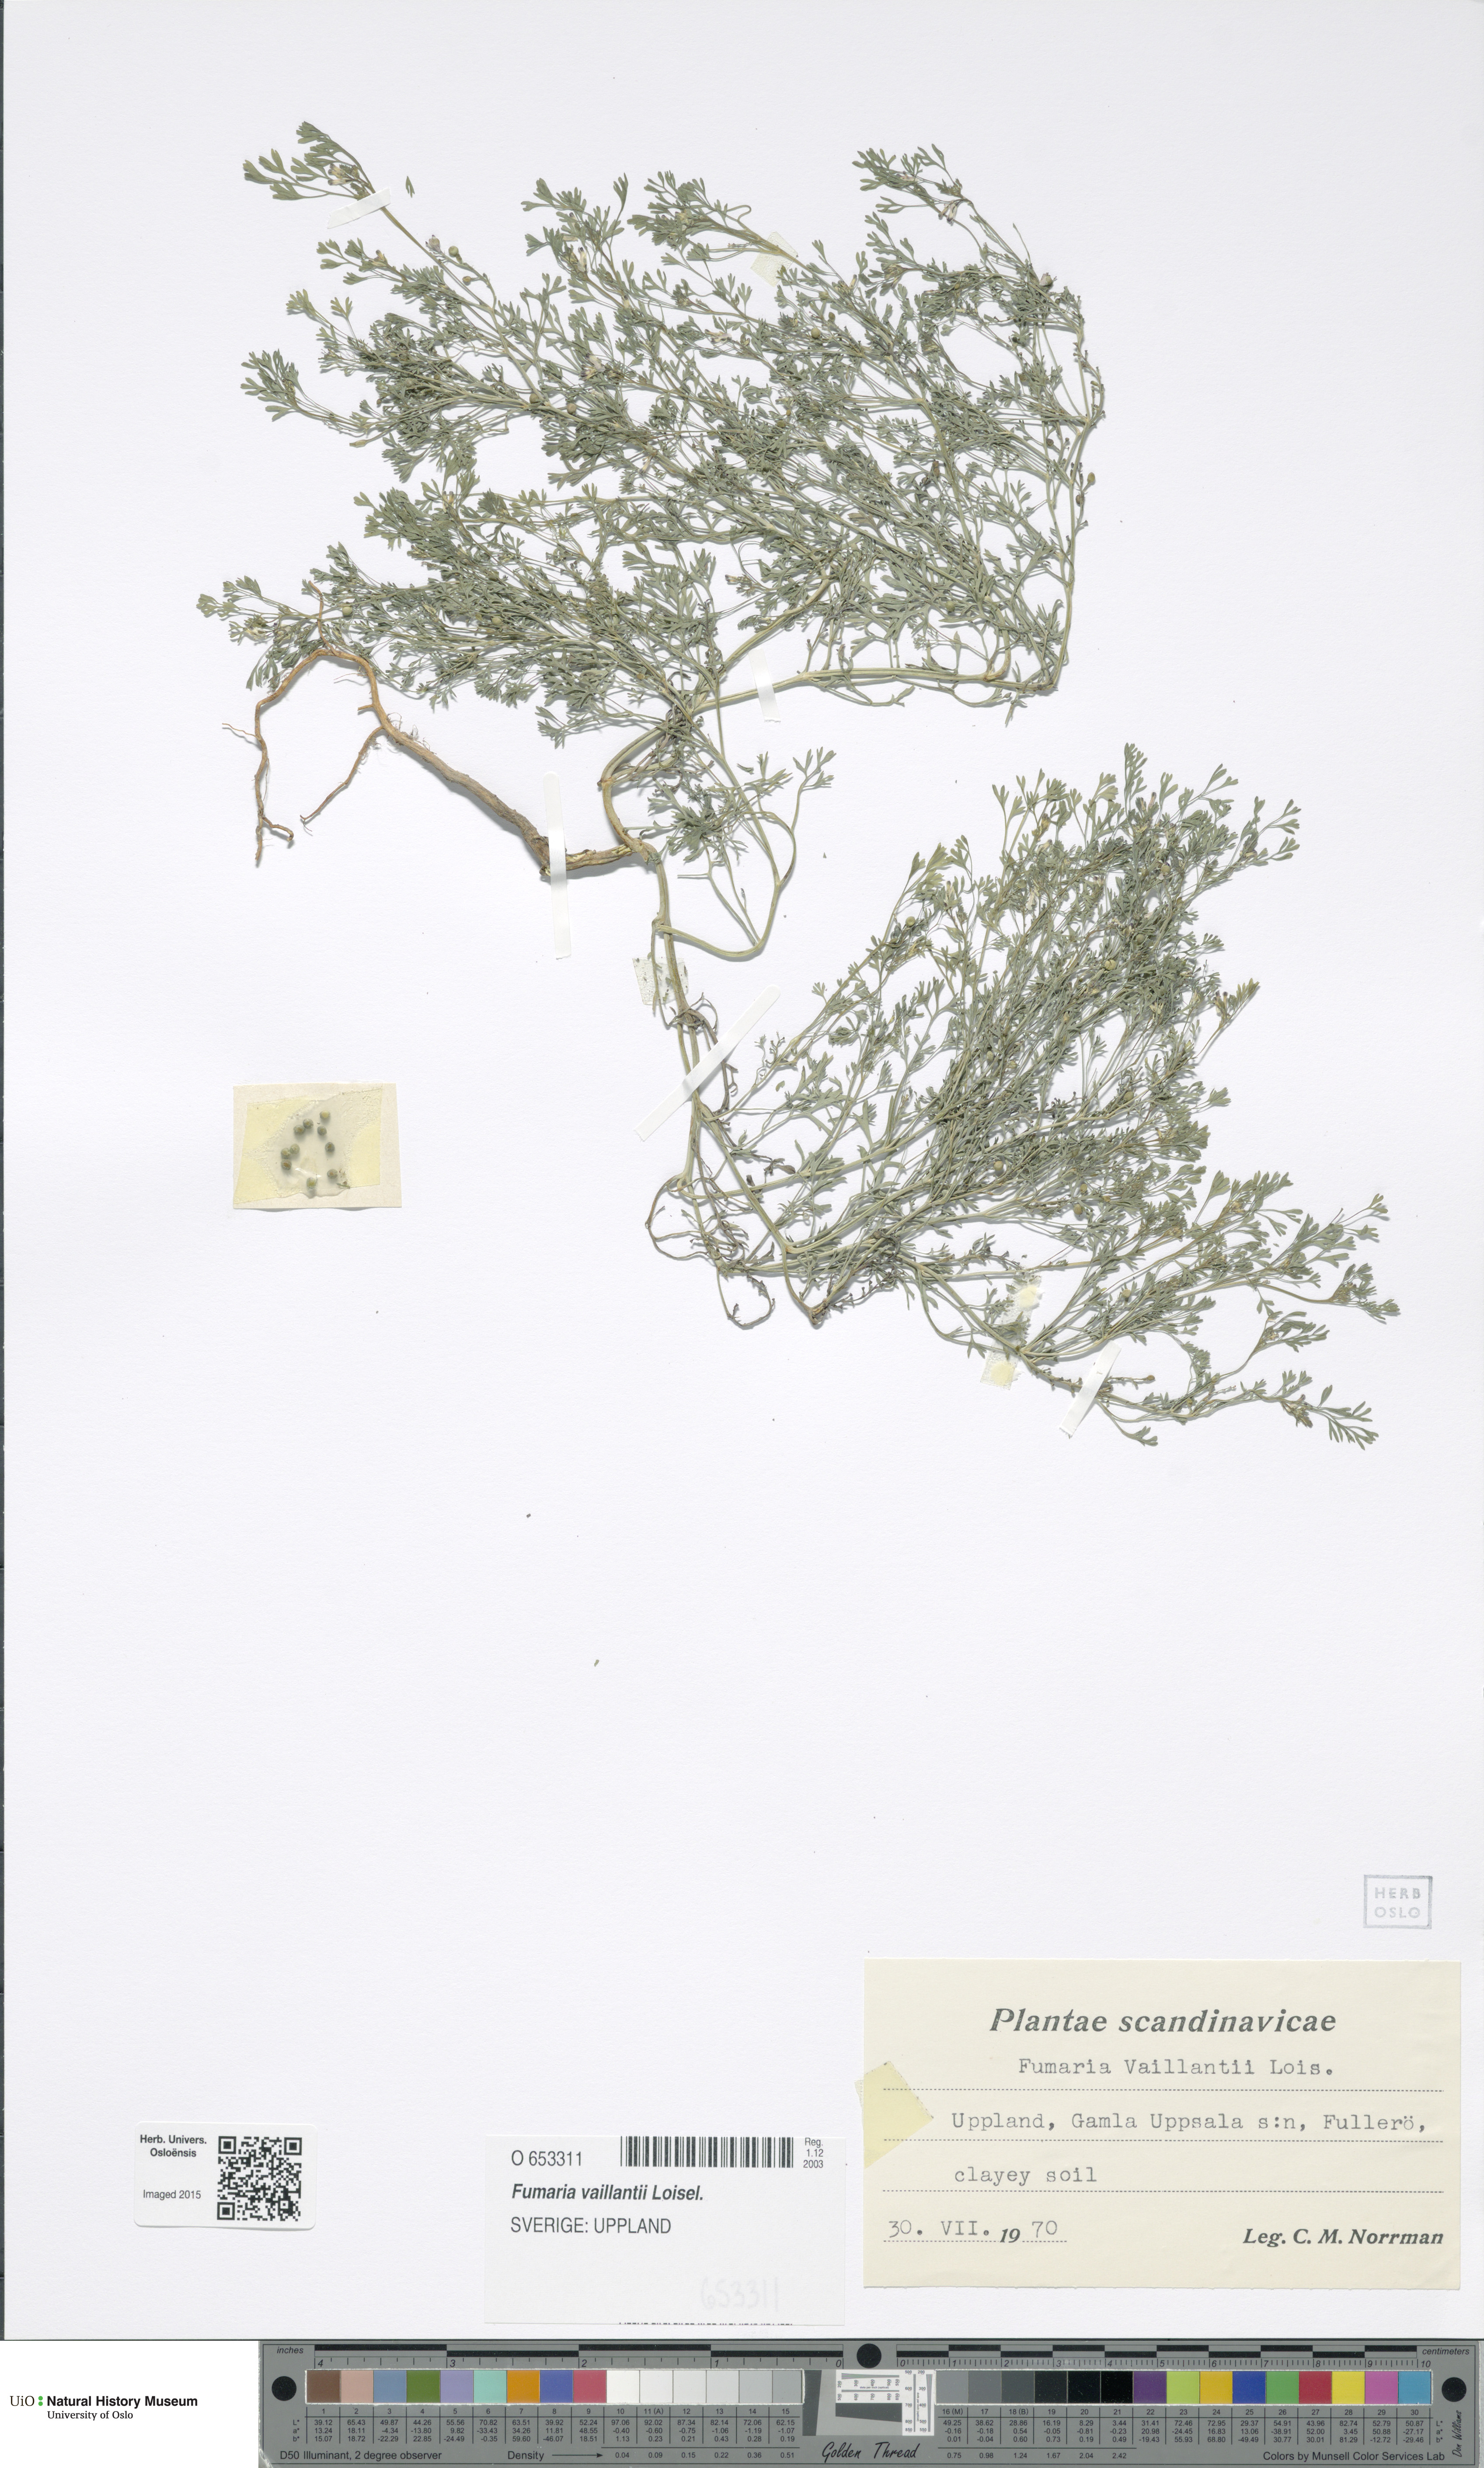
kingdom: Plantae
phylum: Tracheophyta
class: Magnoliopsida
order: Ranunculales
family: Papaveraceae
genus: Fumaria
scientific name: Fumaria vaillantii
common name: Few-flowered fumitory
